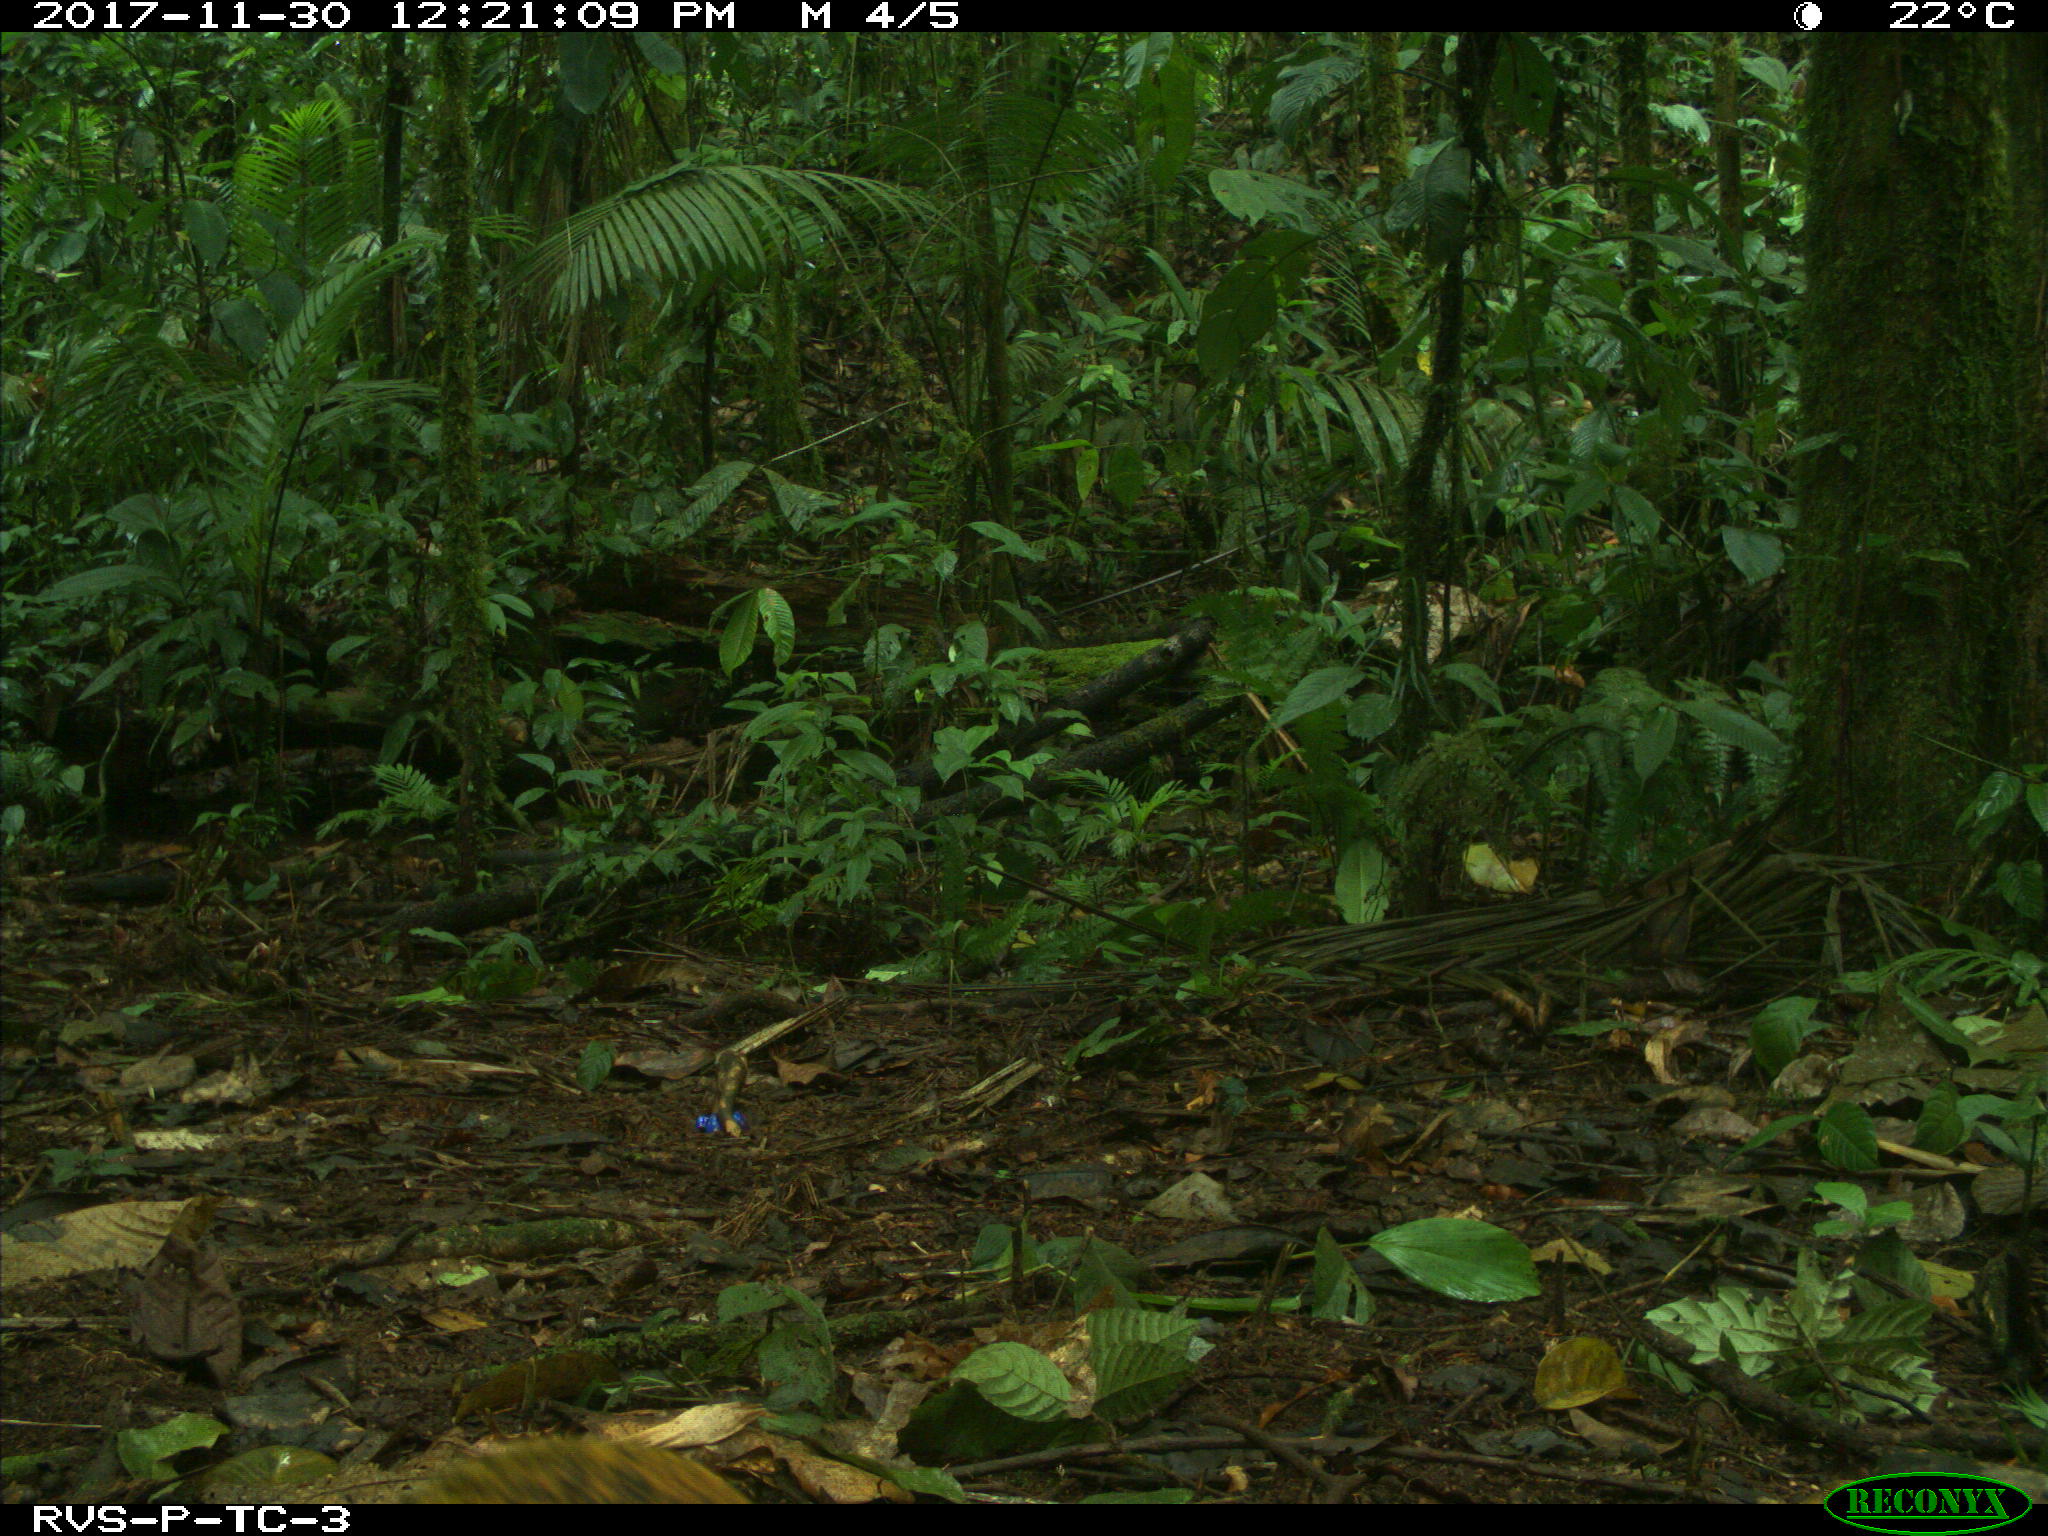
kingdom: Animalia
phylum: Chordata
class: Mammalia
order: Rodentia
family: Dasyproctidae
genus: Dasyprocta
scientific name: Dasyprocta punctata
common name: Central american agouti
